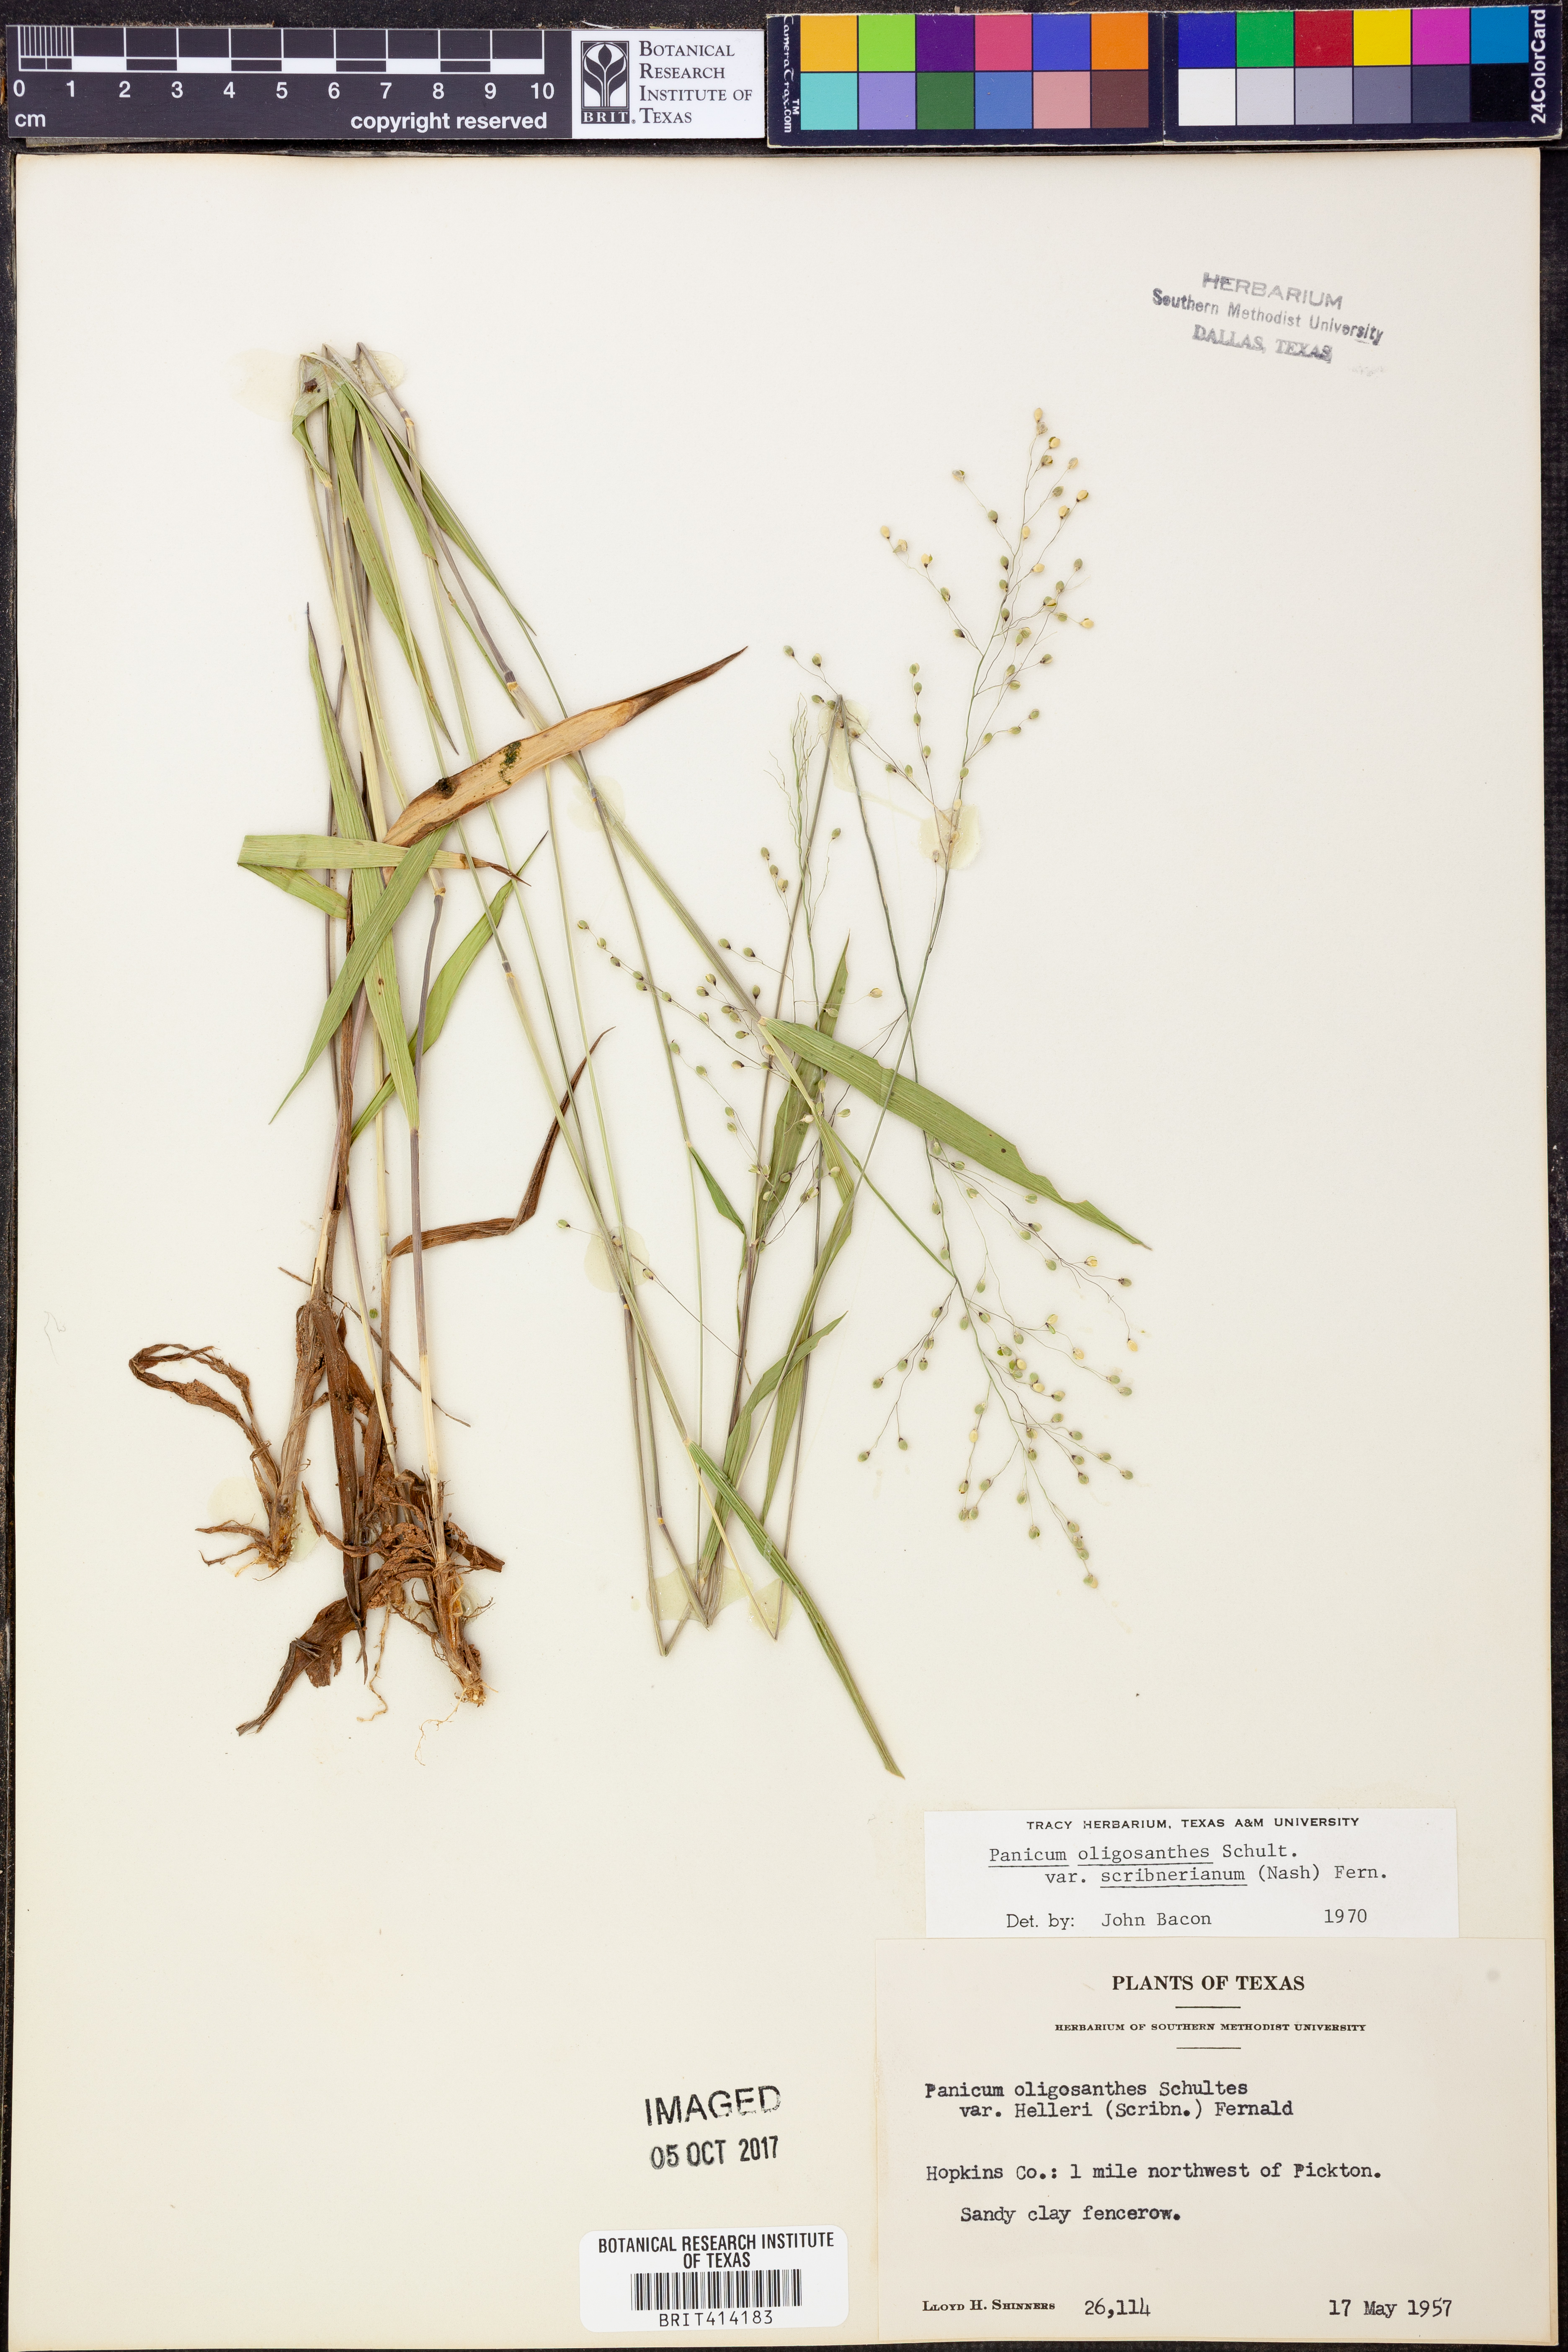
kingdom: Plantae
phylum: Tracheophyta
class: Liliopsida
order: Poales
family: Poaceae
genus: Dichanthelium
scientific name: Dichanthelium scribnerianum
